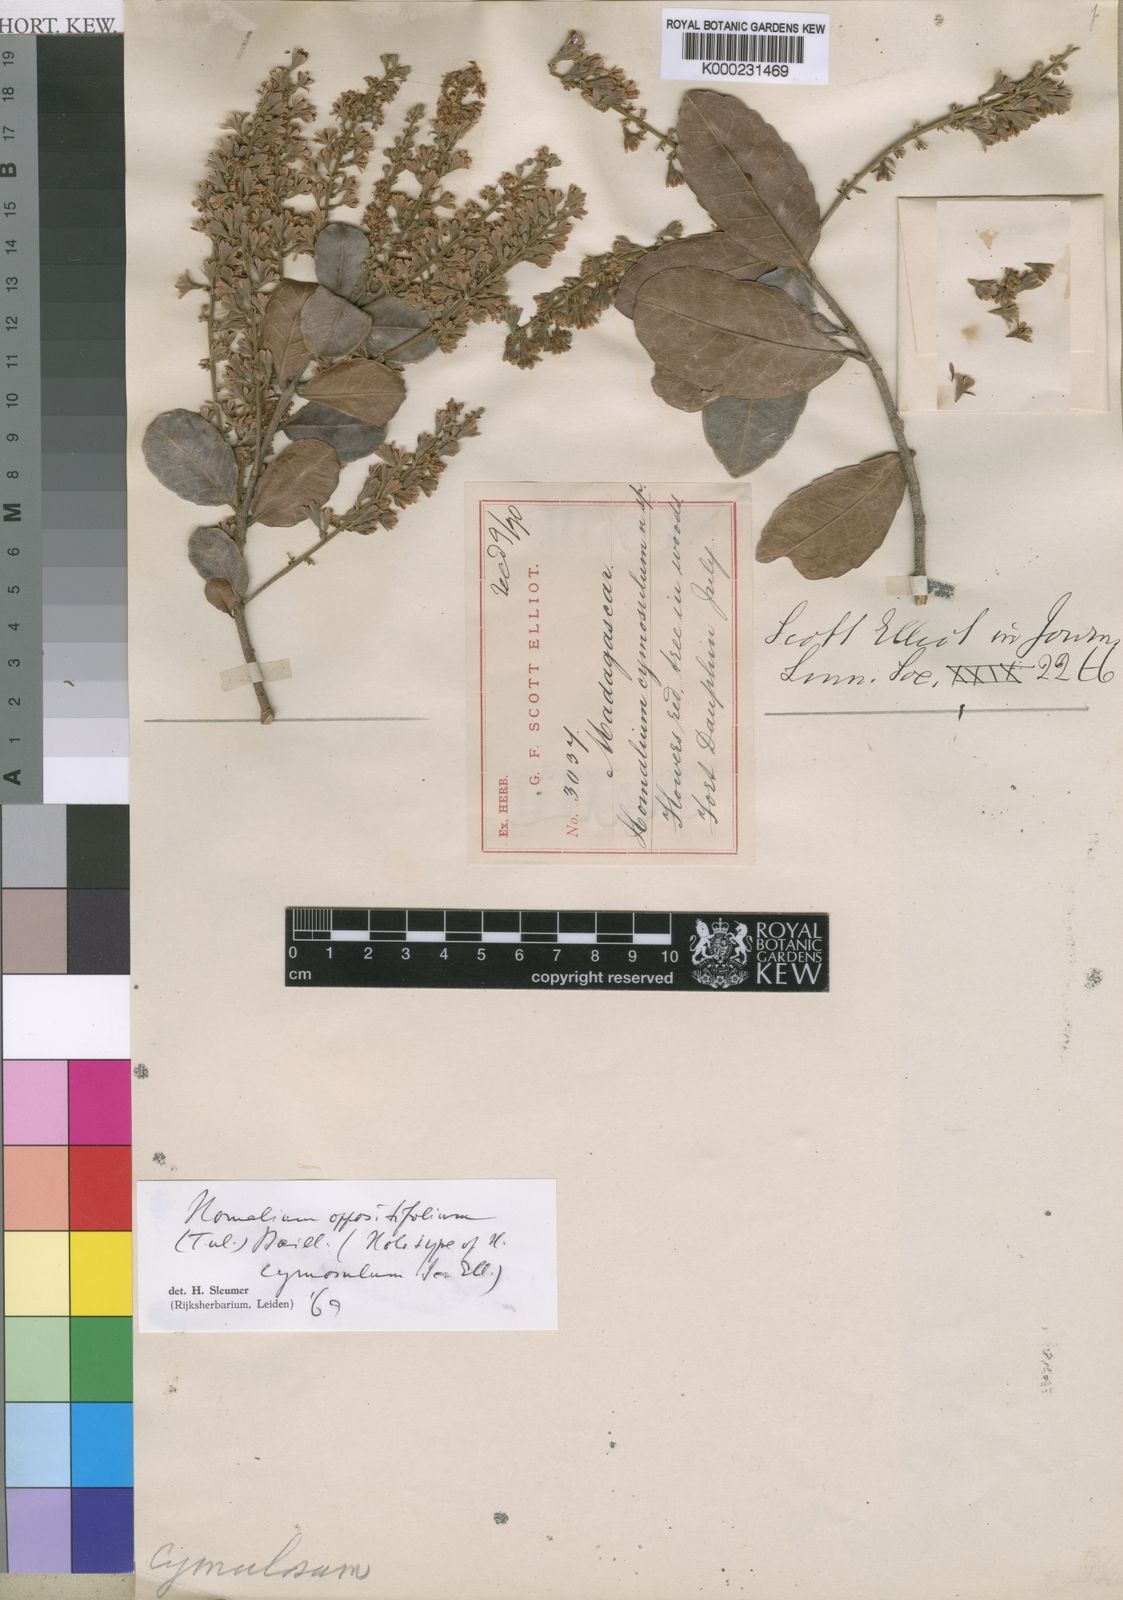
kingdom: Plantae
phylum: Tracheophyta
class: Magnoliopsida
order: Malpighiales
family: Salicaceae
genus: Homalium
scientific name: Homalium oppositifolium
